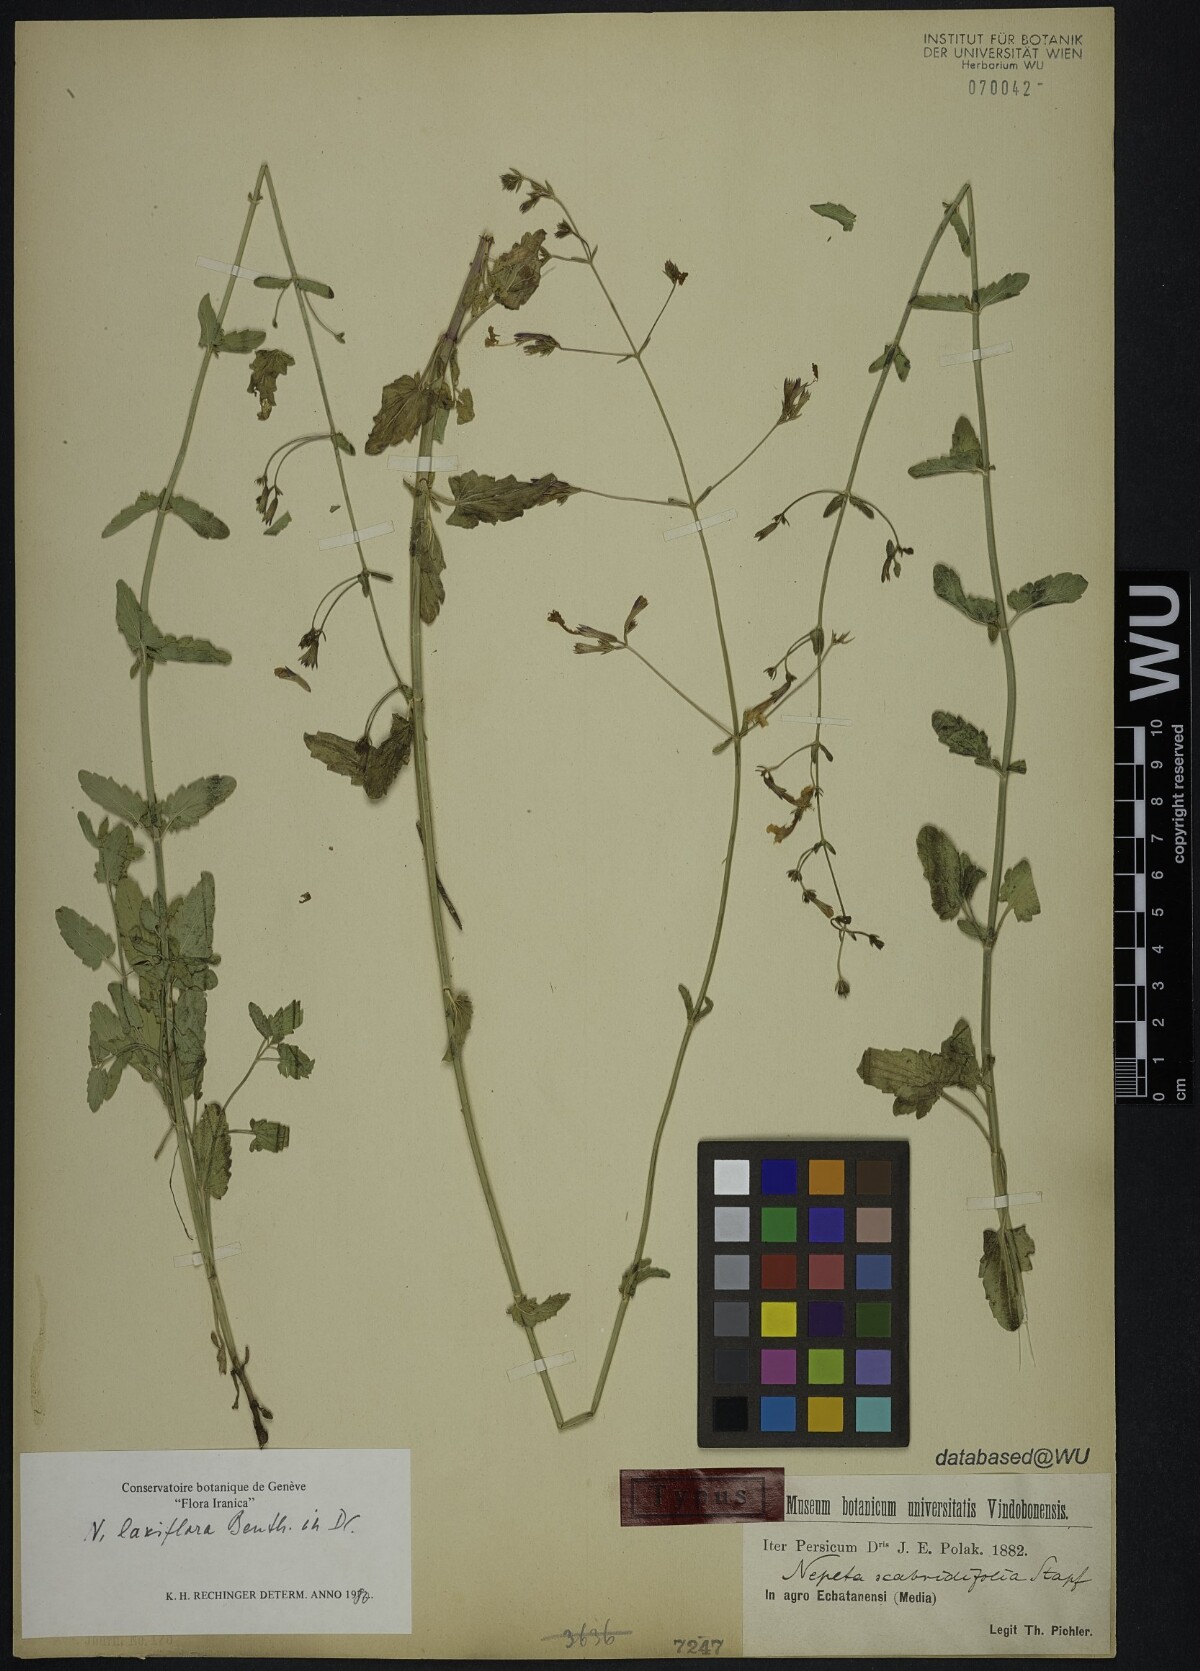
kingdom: Plantae
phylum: Tracheophyta
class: Magnoliopsida
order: Lamiales
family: Lamiaceae
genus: Nepeta
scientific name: Nepeta laxiflora
